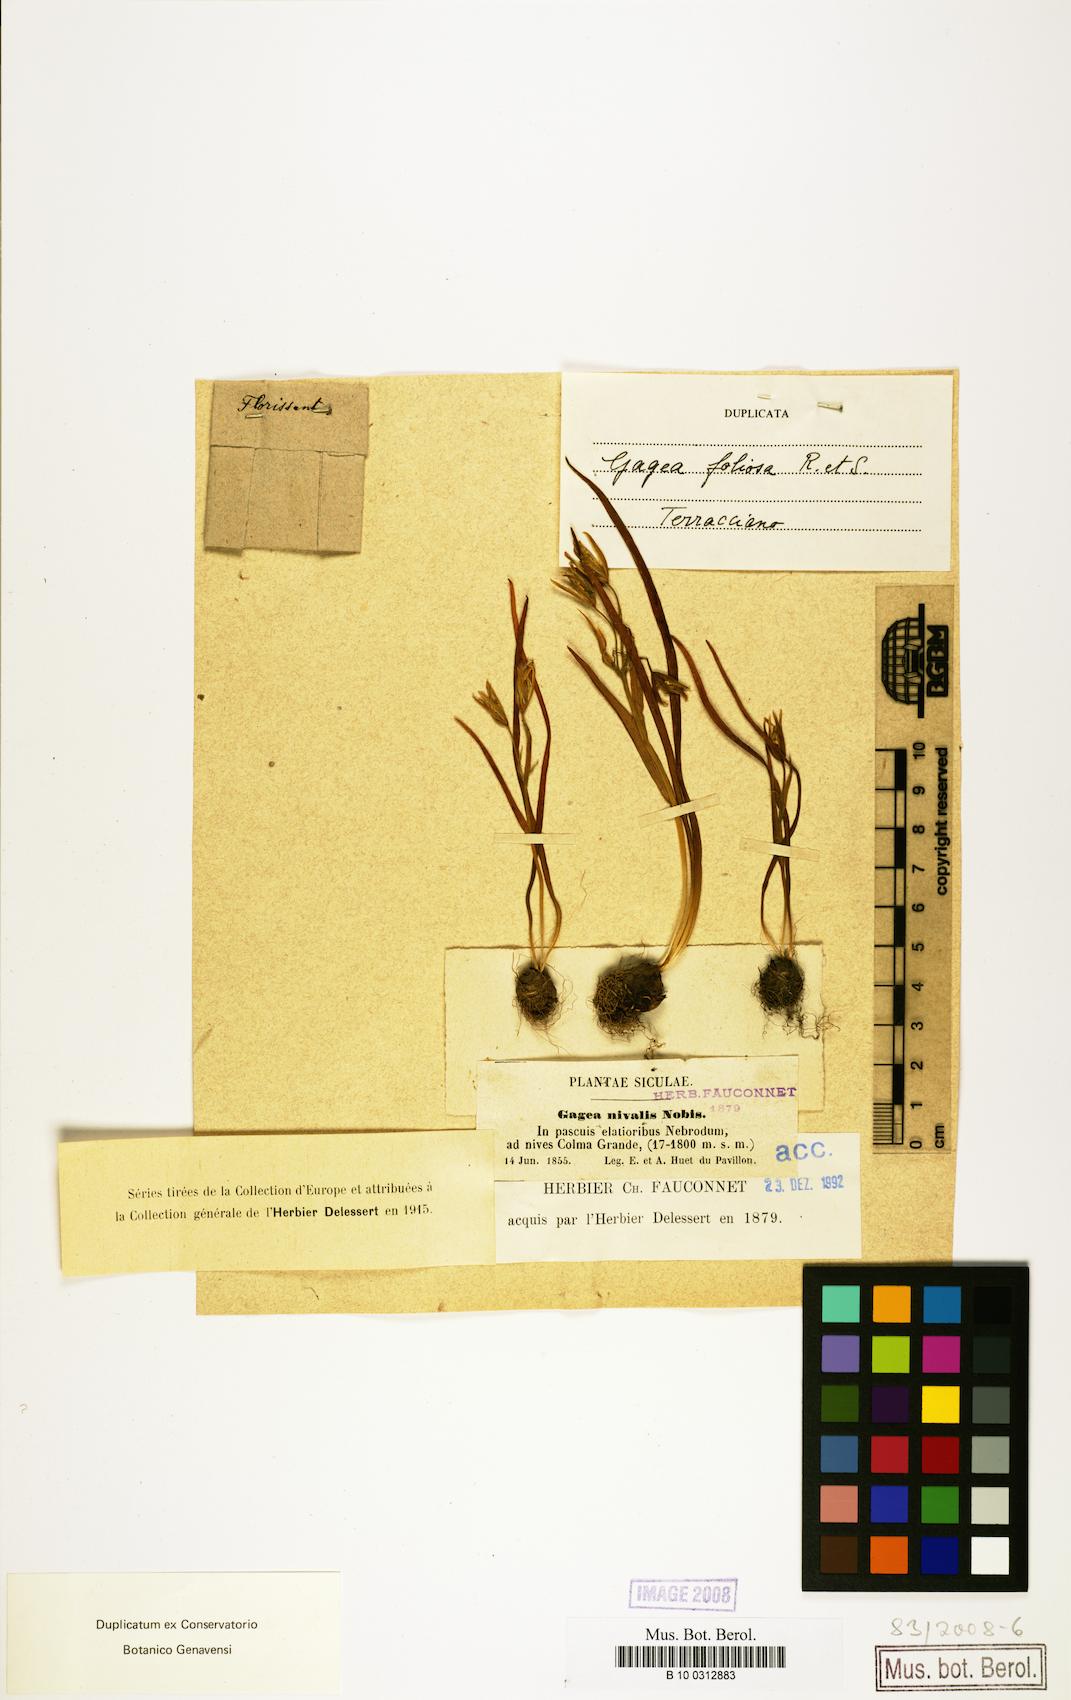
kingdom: Plantae
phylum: Tracheophyta
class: Liliopsida
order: Liliales
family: Liliaceae
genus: Gagea
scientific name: Gagea foliosa
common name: Leafy gagea
